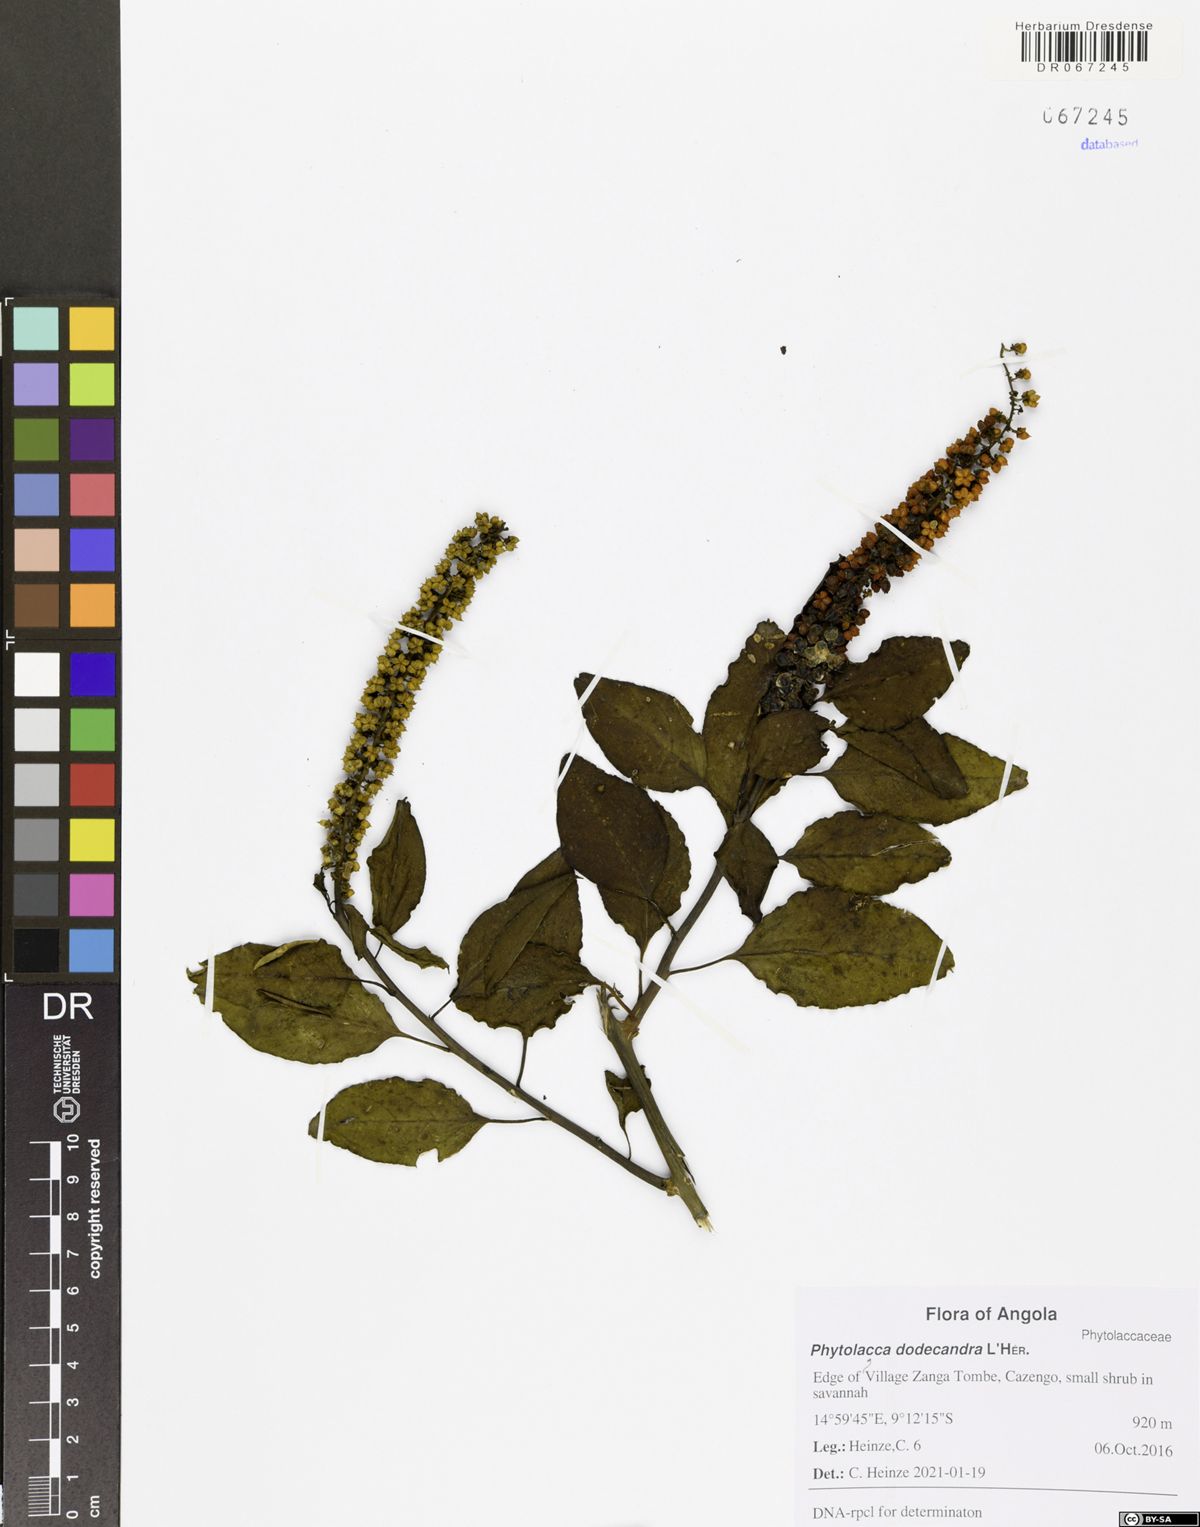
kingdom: Plantae
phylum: Tracheophyta
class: Magnoliopsida
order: Caryophyllales
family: Phytolaccaceae
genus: Phytolacca
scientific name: Phytolacca dodecandra
